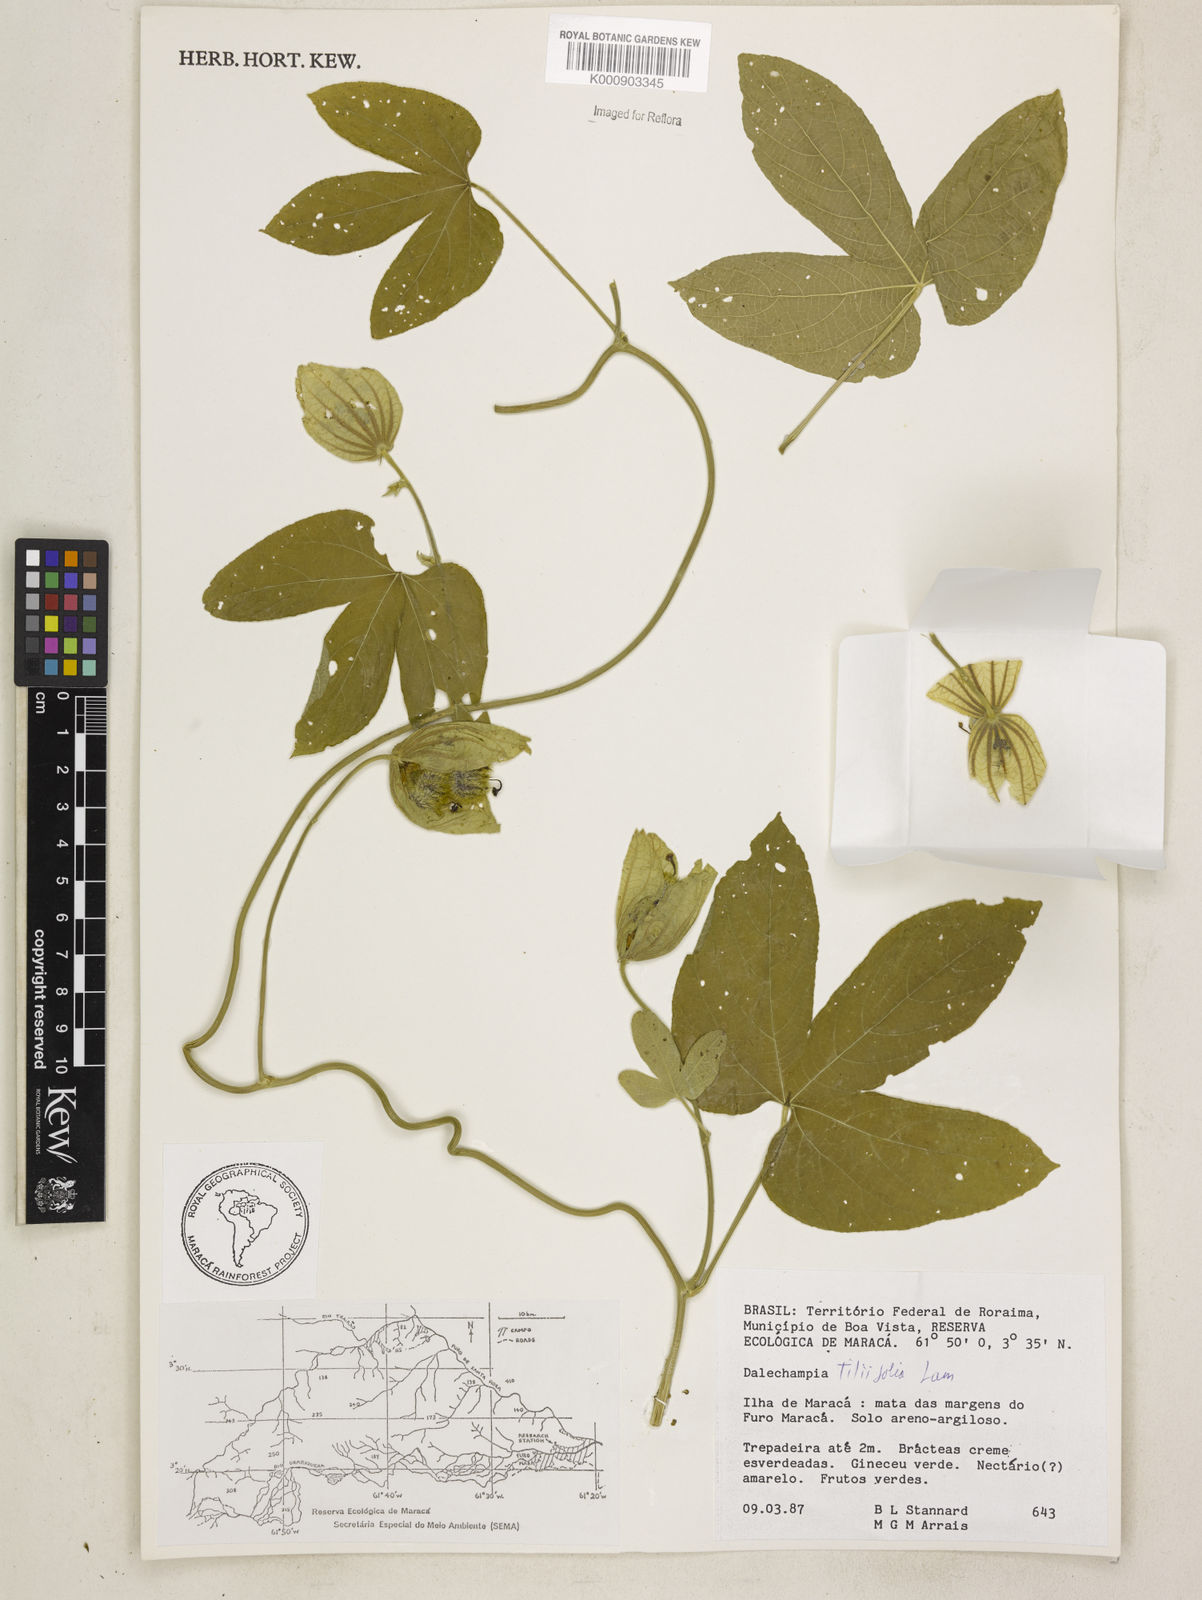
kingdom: Plantae
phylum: Tracheophyta
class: Magnoliopsida
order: Malpighiales
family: Euphorbiaceae
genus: Dalechampia
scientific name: Dalechampia tiliifolia
